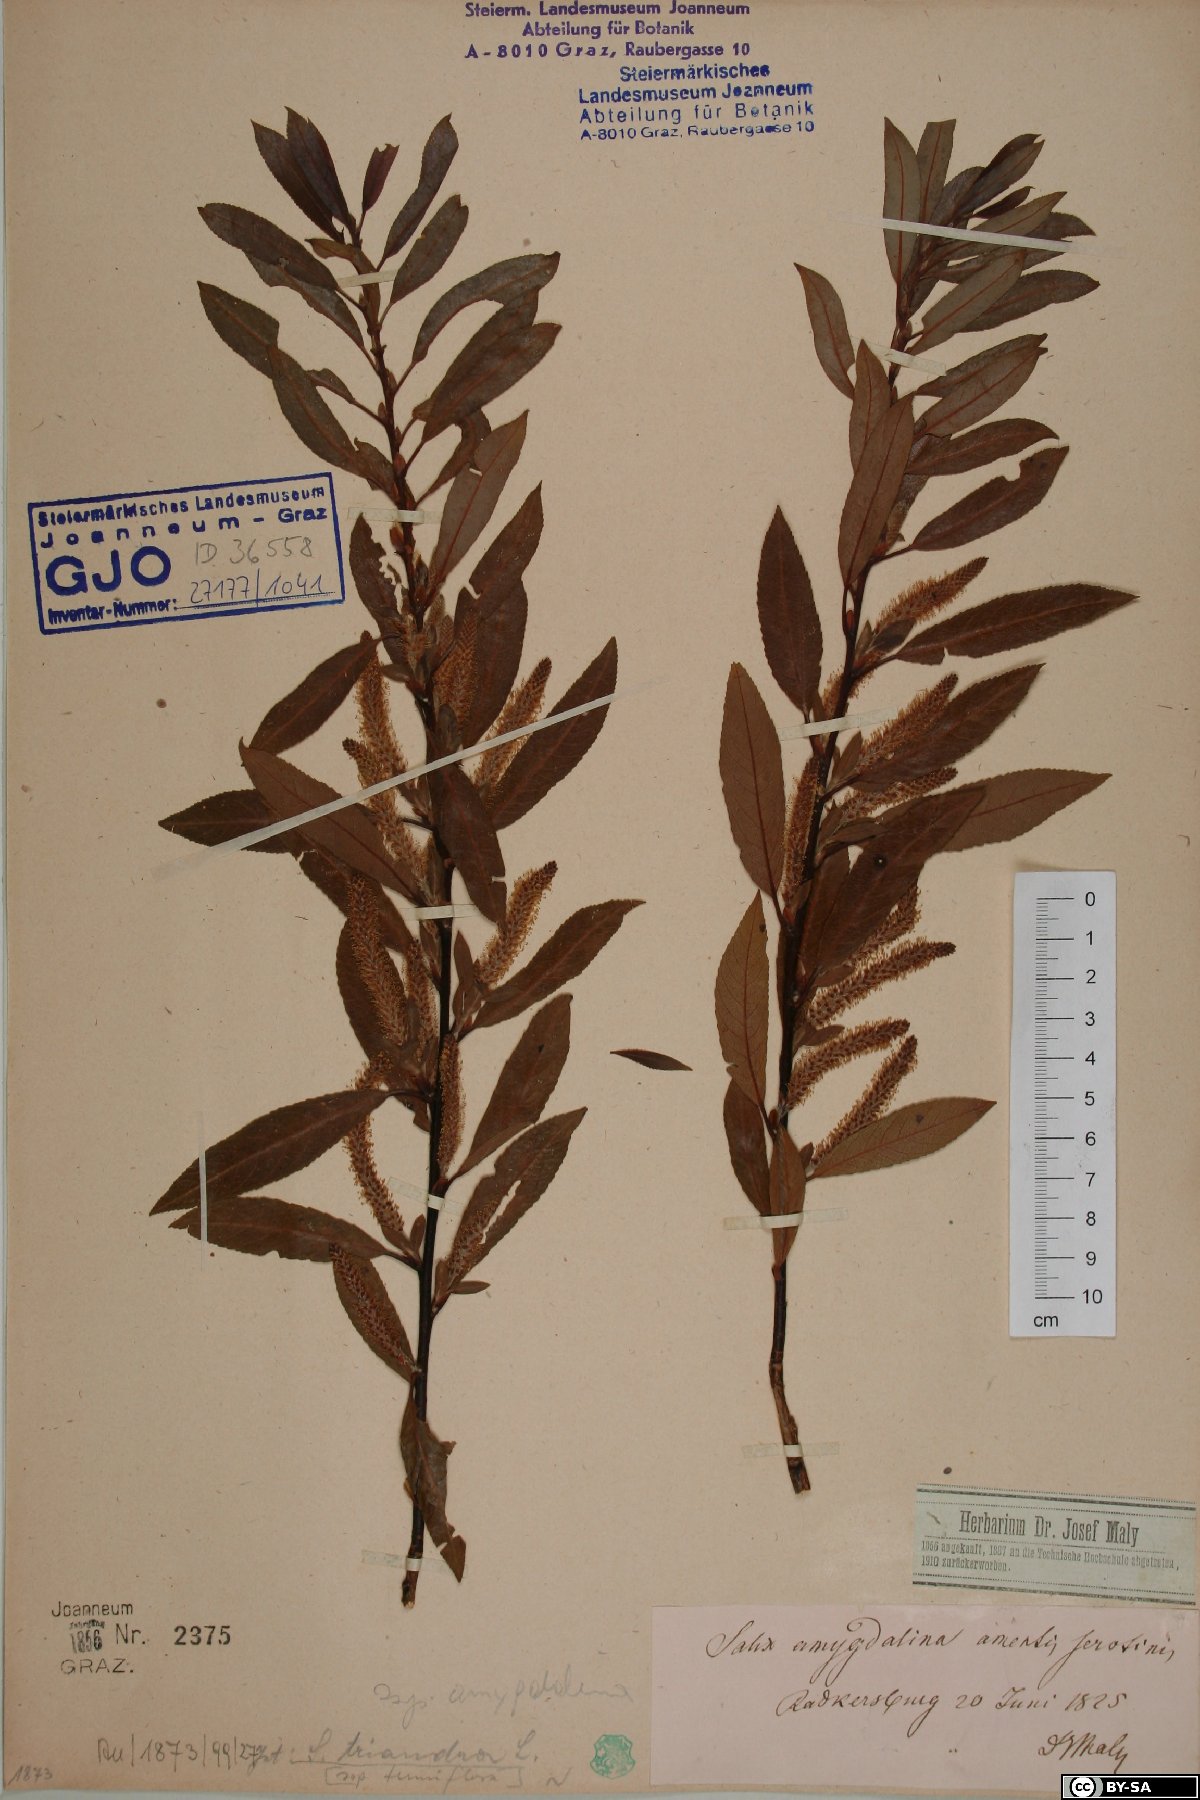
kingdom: Plantae
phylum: Tracheophyta
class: Magnoliopsida
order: Malpighiales
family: Salicaceae
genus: Salix
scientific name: Salix triandra
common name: Almond willow
